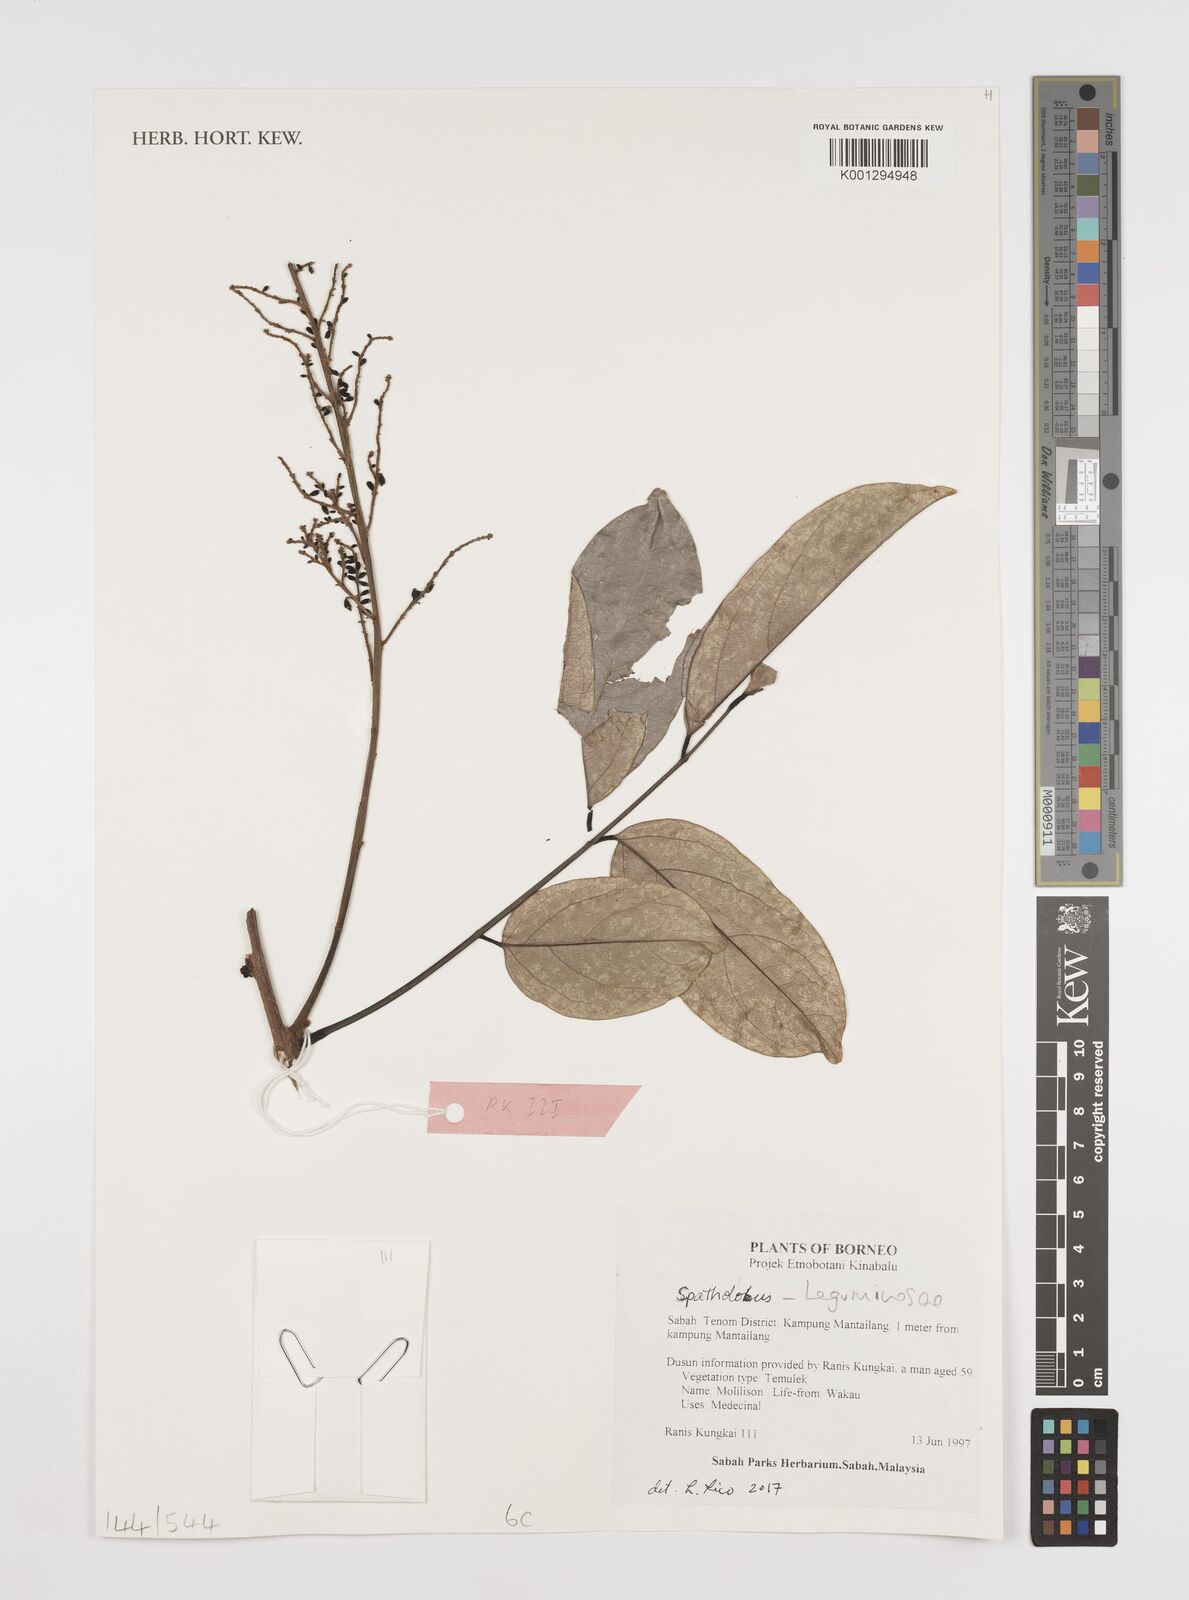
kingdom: Plantae
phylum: Tracheophyta
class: Magnoliopsida
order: Fabales
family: Fabaceae
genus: Spatholobus
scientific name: Spatholobus
